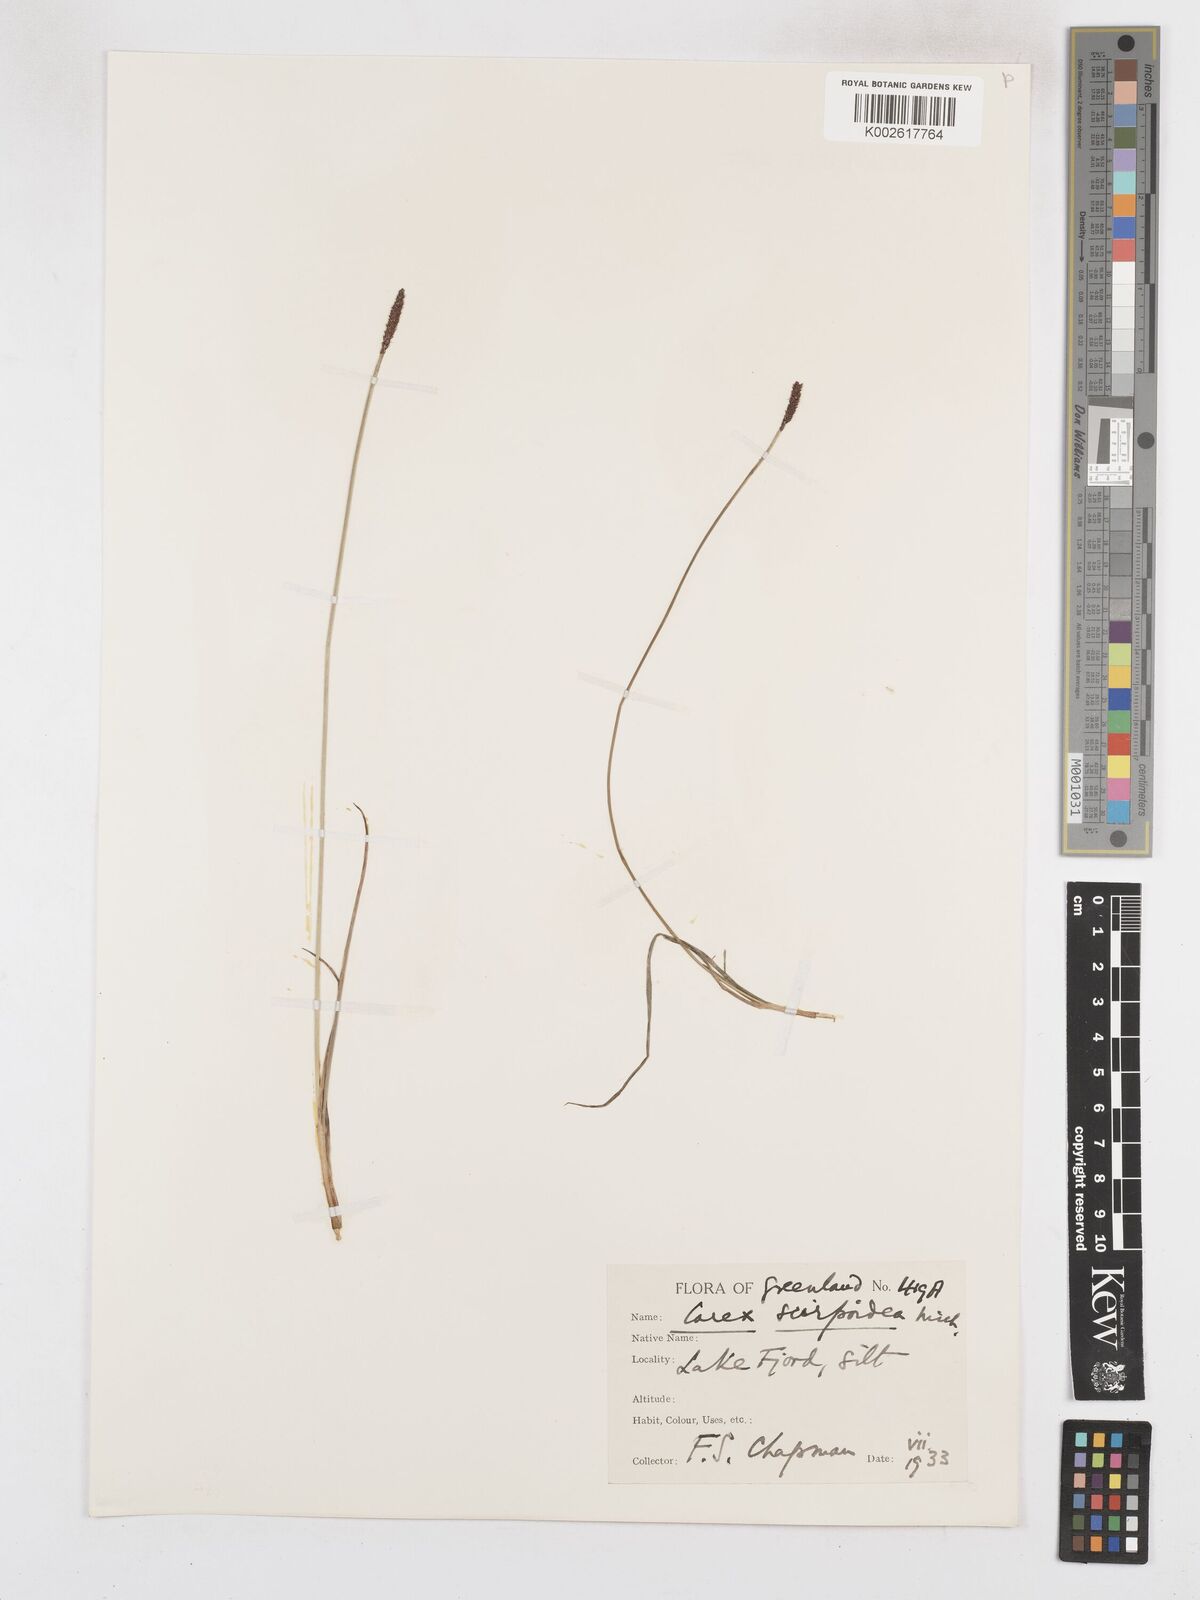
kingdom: Plantae
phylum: Tracheophyta
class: Liliopsida
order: Poales
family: Cyperaceae
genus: Carex
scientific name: Carex scirpoidea
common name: Canada single-spike sedge
